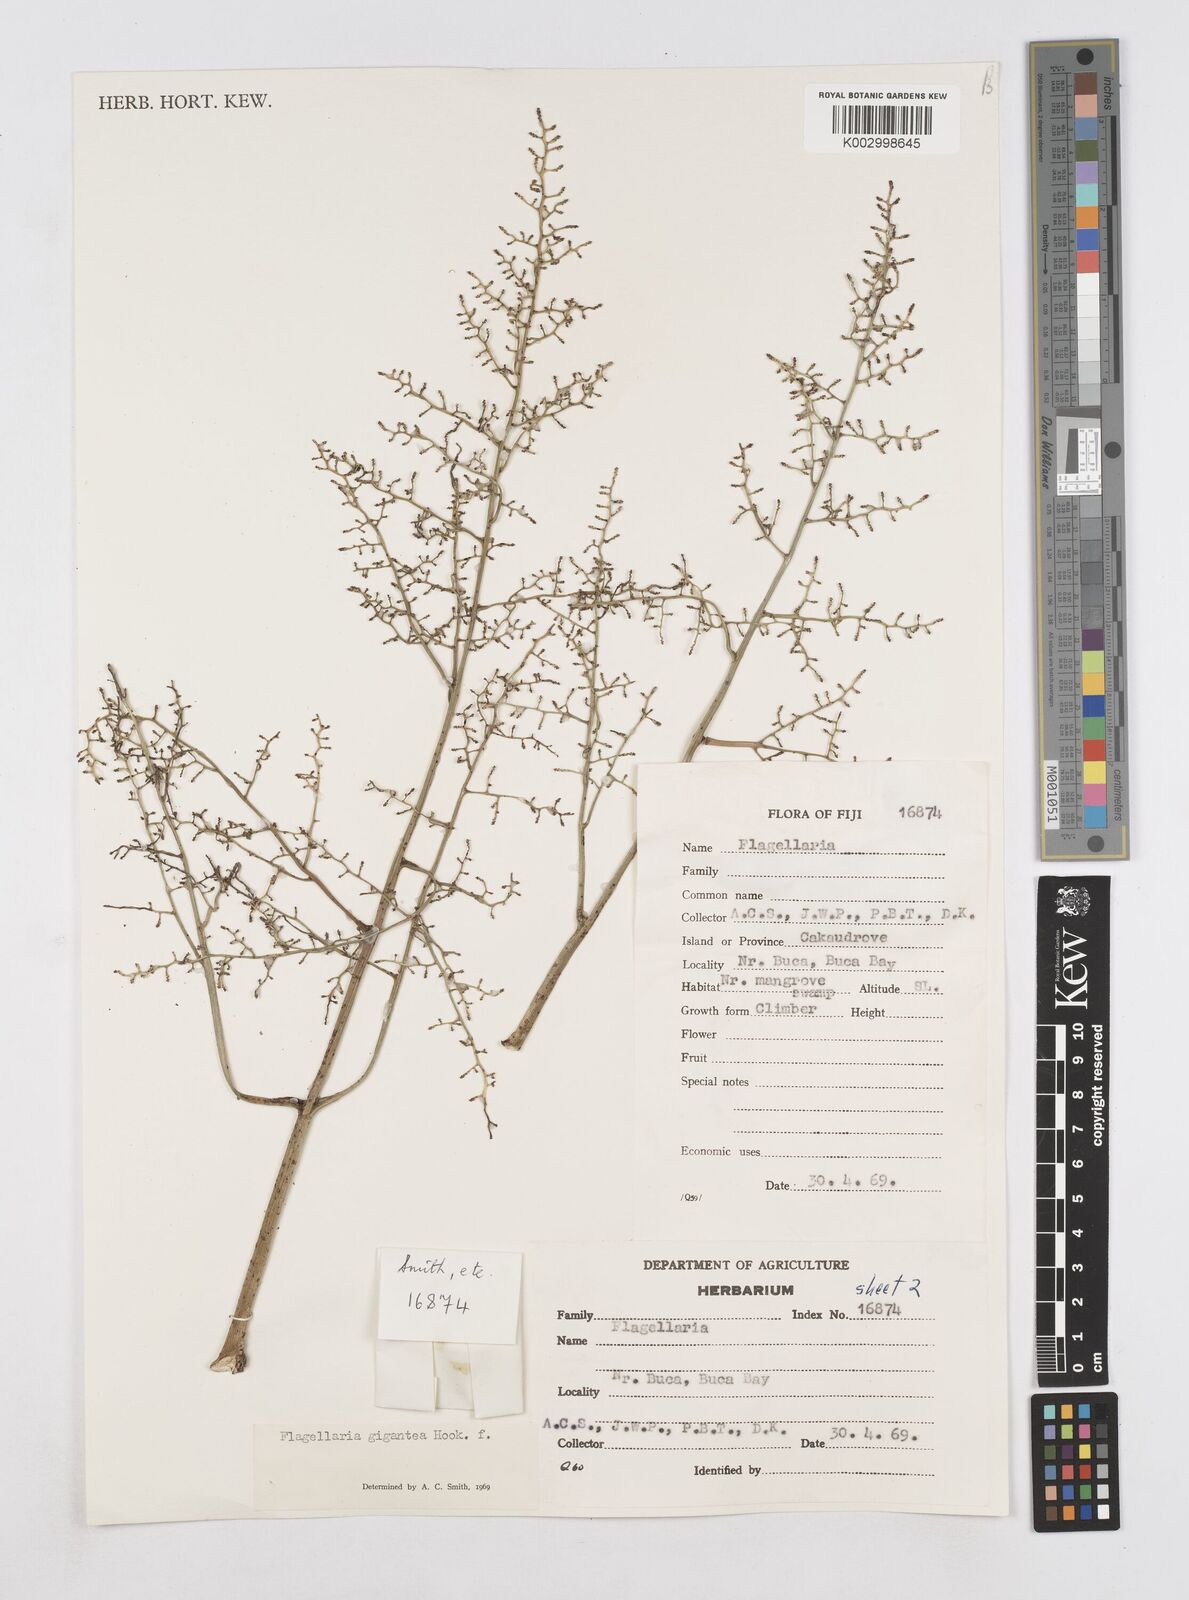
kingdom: Plantae
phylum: Tracheophyta
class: Liliopsida
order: Poales
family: Flagellariaceae
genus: Flagellaria
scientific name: Flagellaria gigantea
